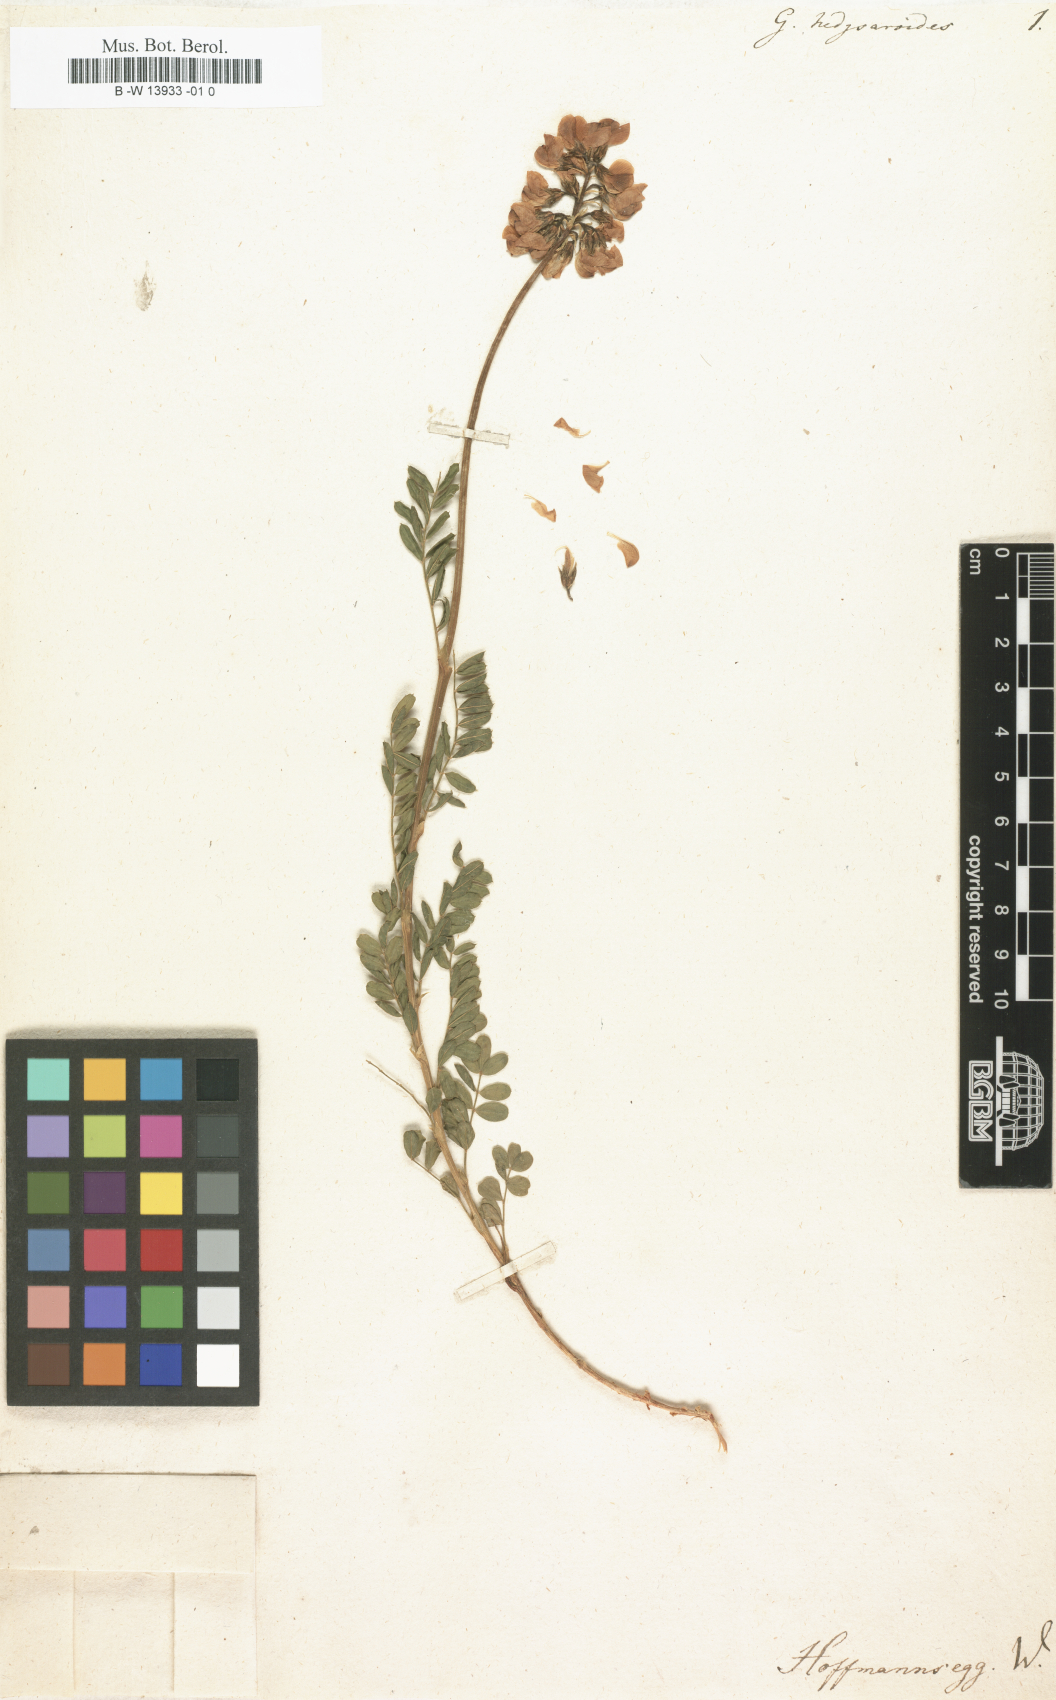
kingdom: Plantae
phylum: Tracheophyta
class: Magnoliopsida
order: Fabales
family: Fabaceae
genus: Galega
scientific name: Galega
